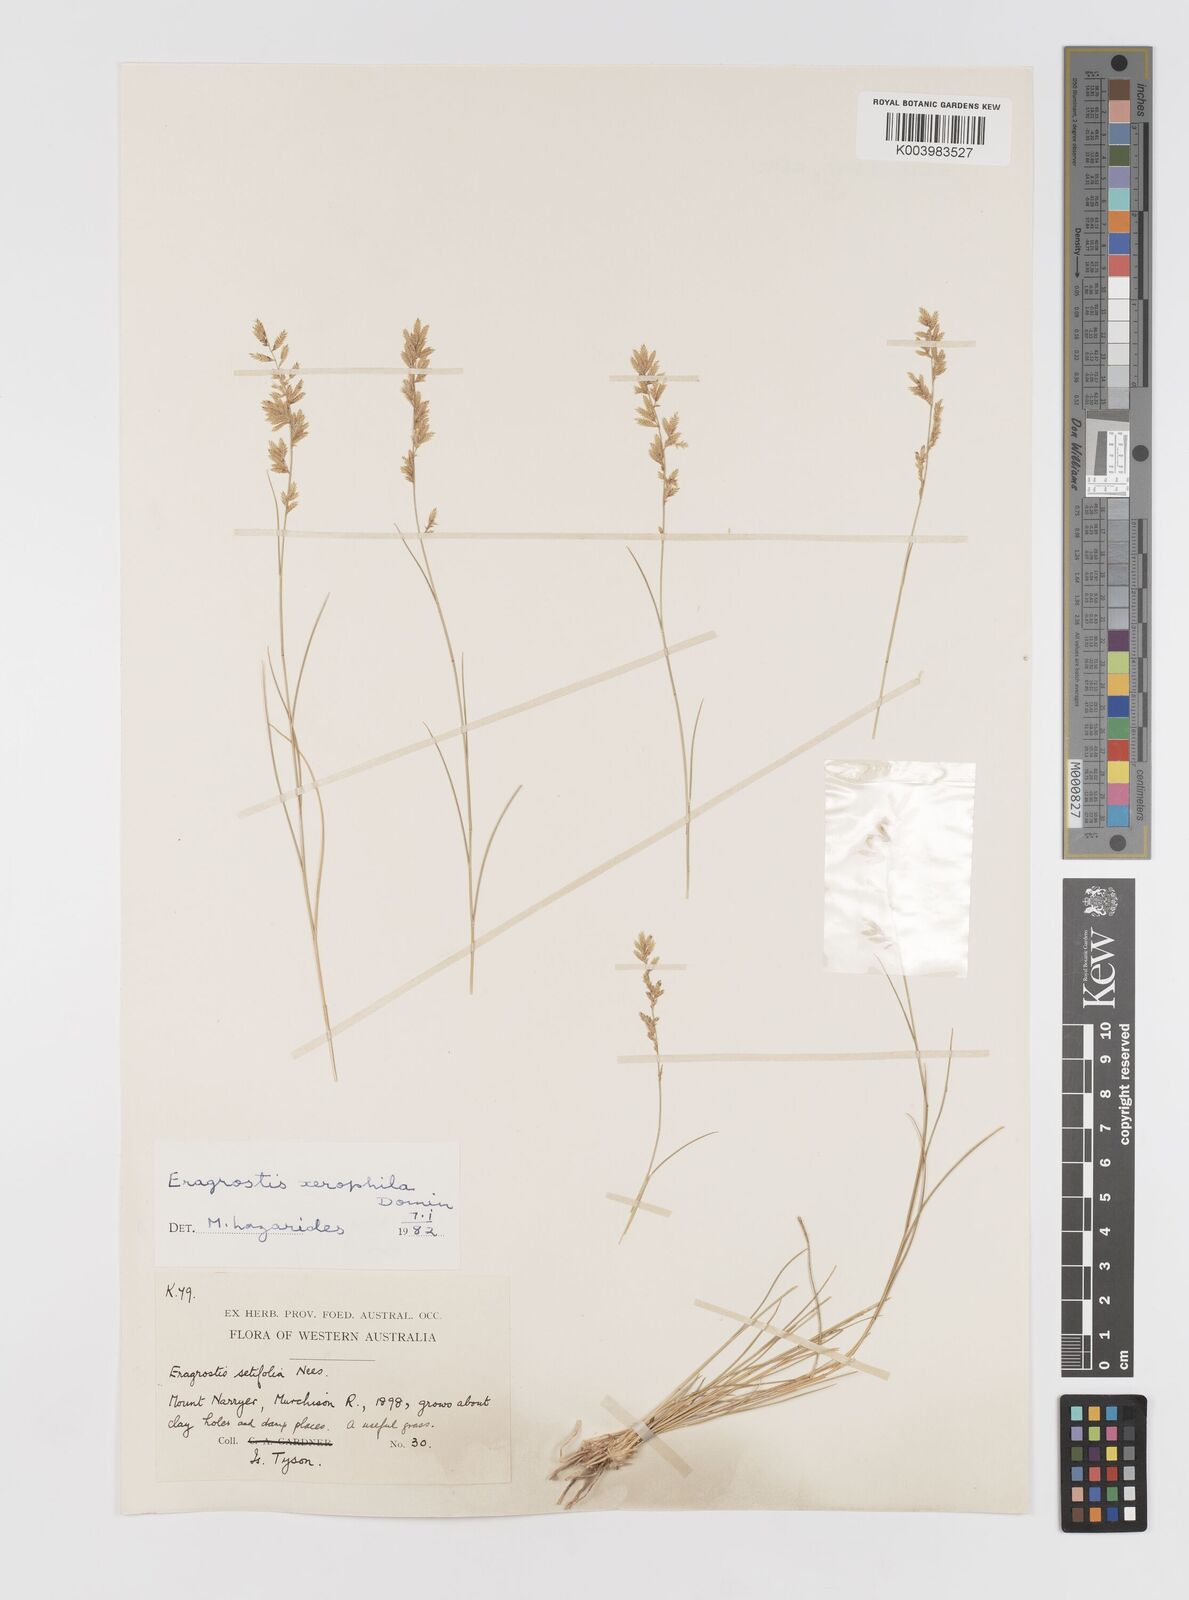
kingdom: Plantae
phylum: Tracheophyta
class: Liliopsida
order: Poales
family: Poaceae
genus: Eragrostis
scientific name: Eragrostis xerophila
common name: Wire wandarrie grass
